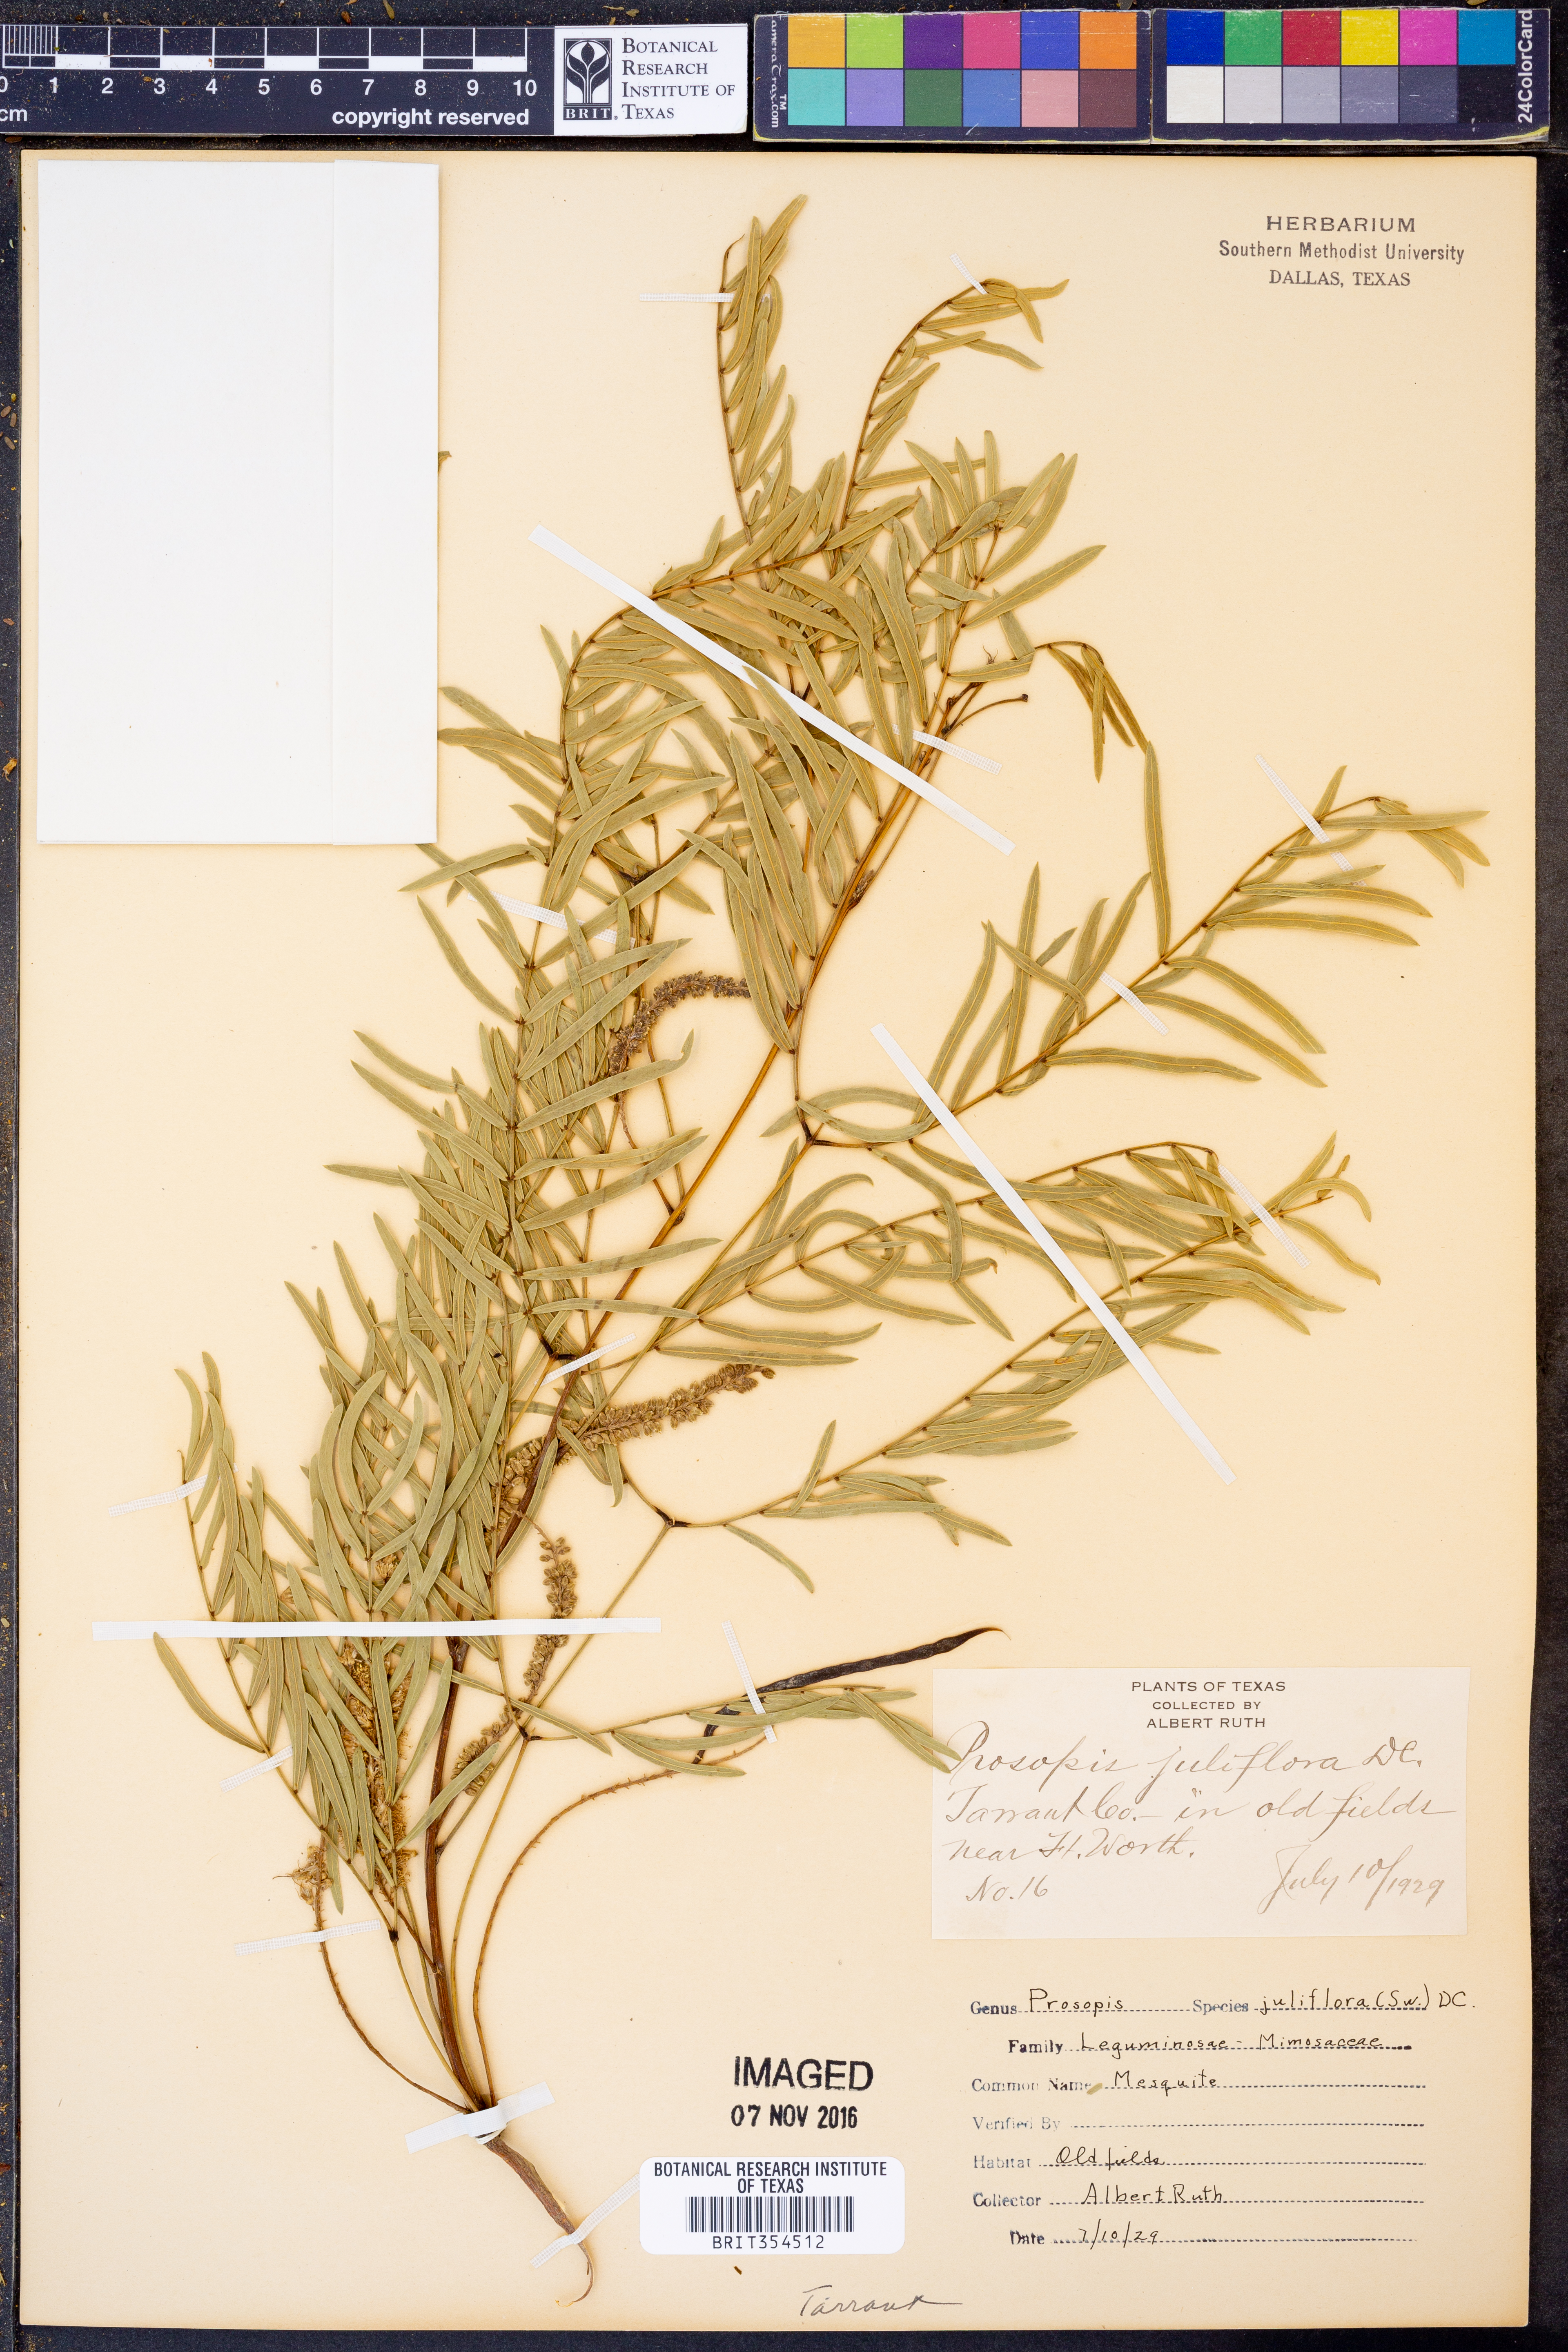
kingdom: Plantae
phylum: Tracheophyta
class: Magnoliopsida
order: Fabales
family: Fabaceae
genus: Prosopis
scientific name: Prosopis juliflora
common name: Mesquite
